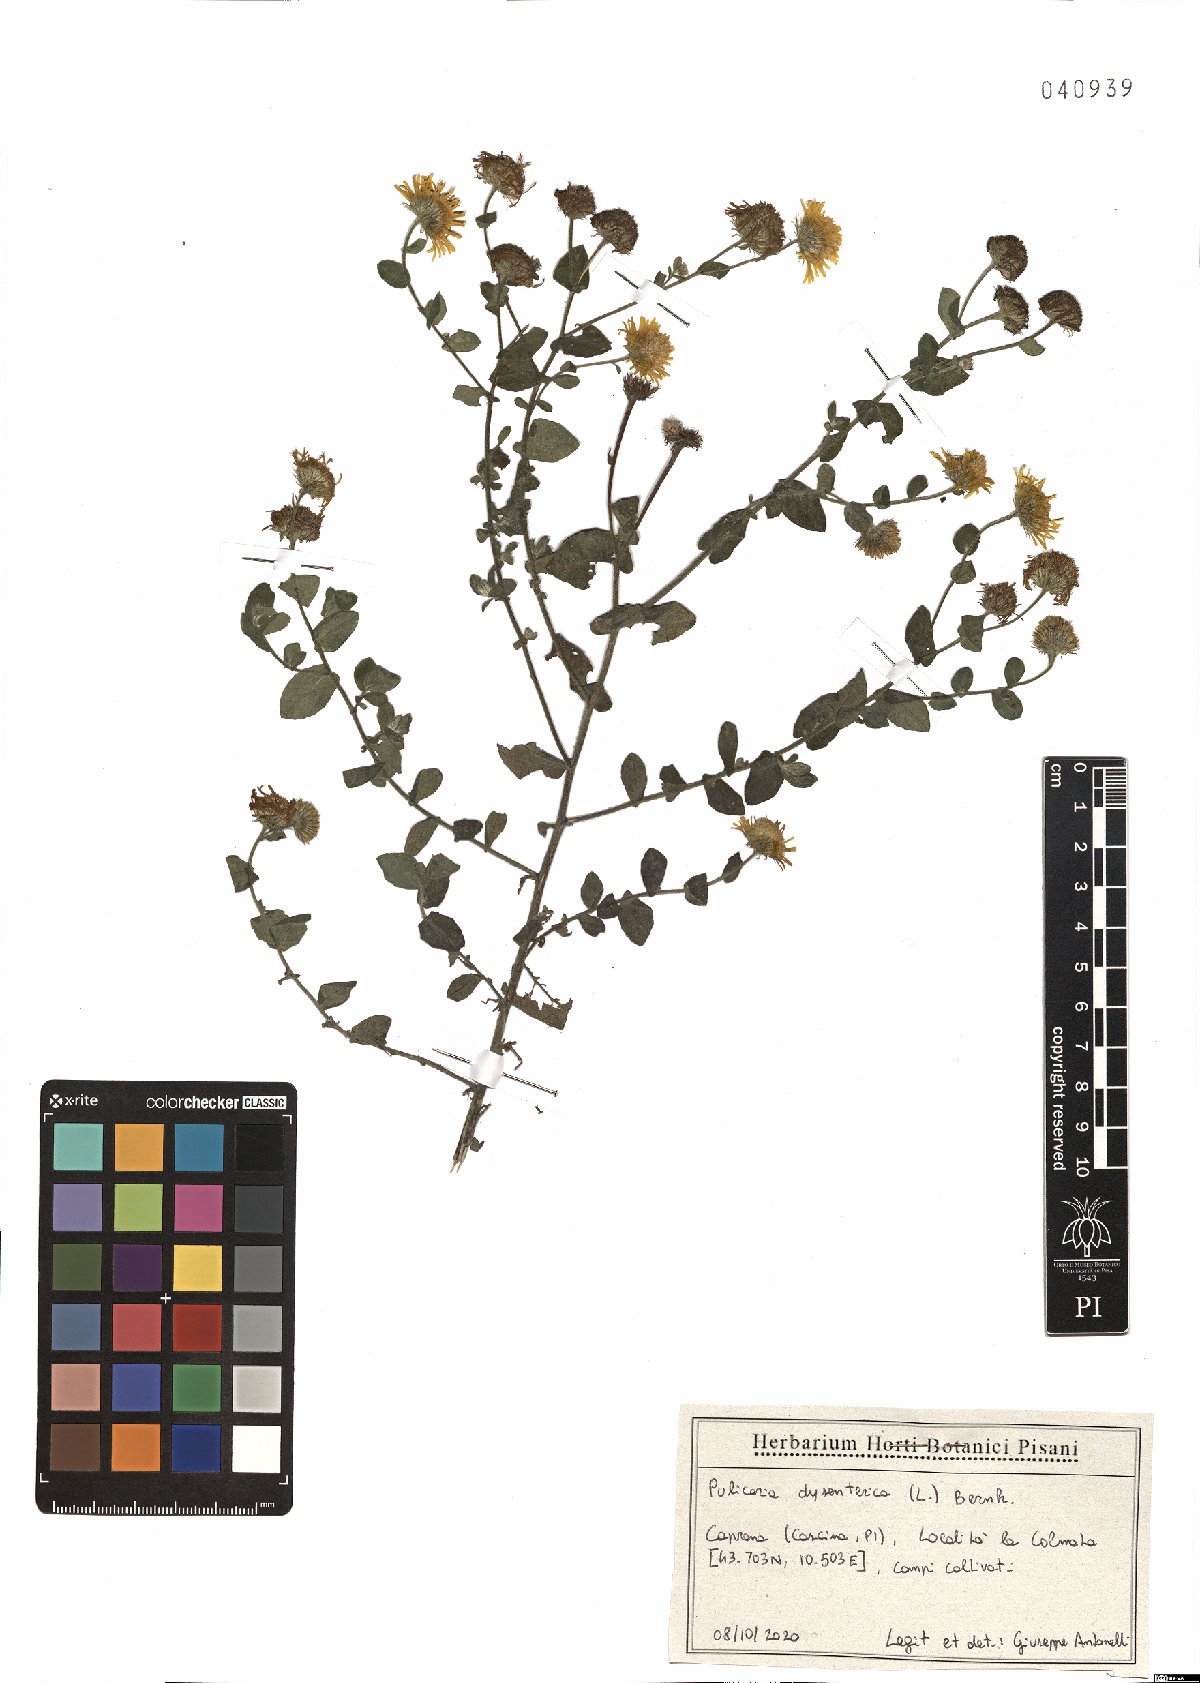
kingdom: Plantae
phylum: Tracheophyta
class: Magnoliopsida
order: Asterales
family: Asteraceae
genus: Pulicaria
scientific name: Pulicaria dysenterica
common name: Common fleabane
